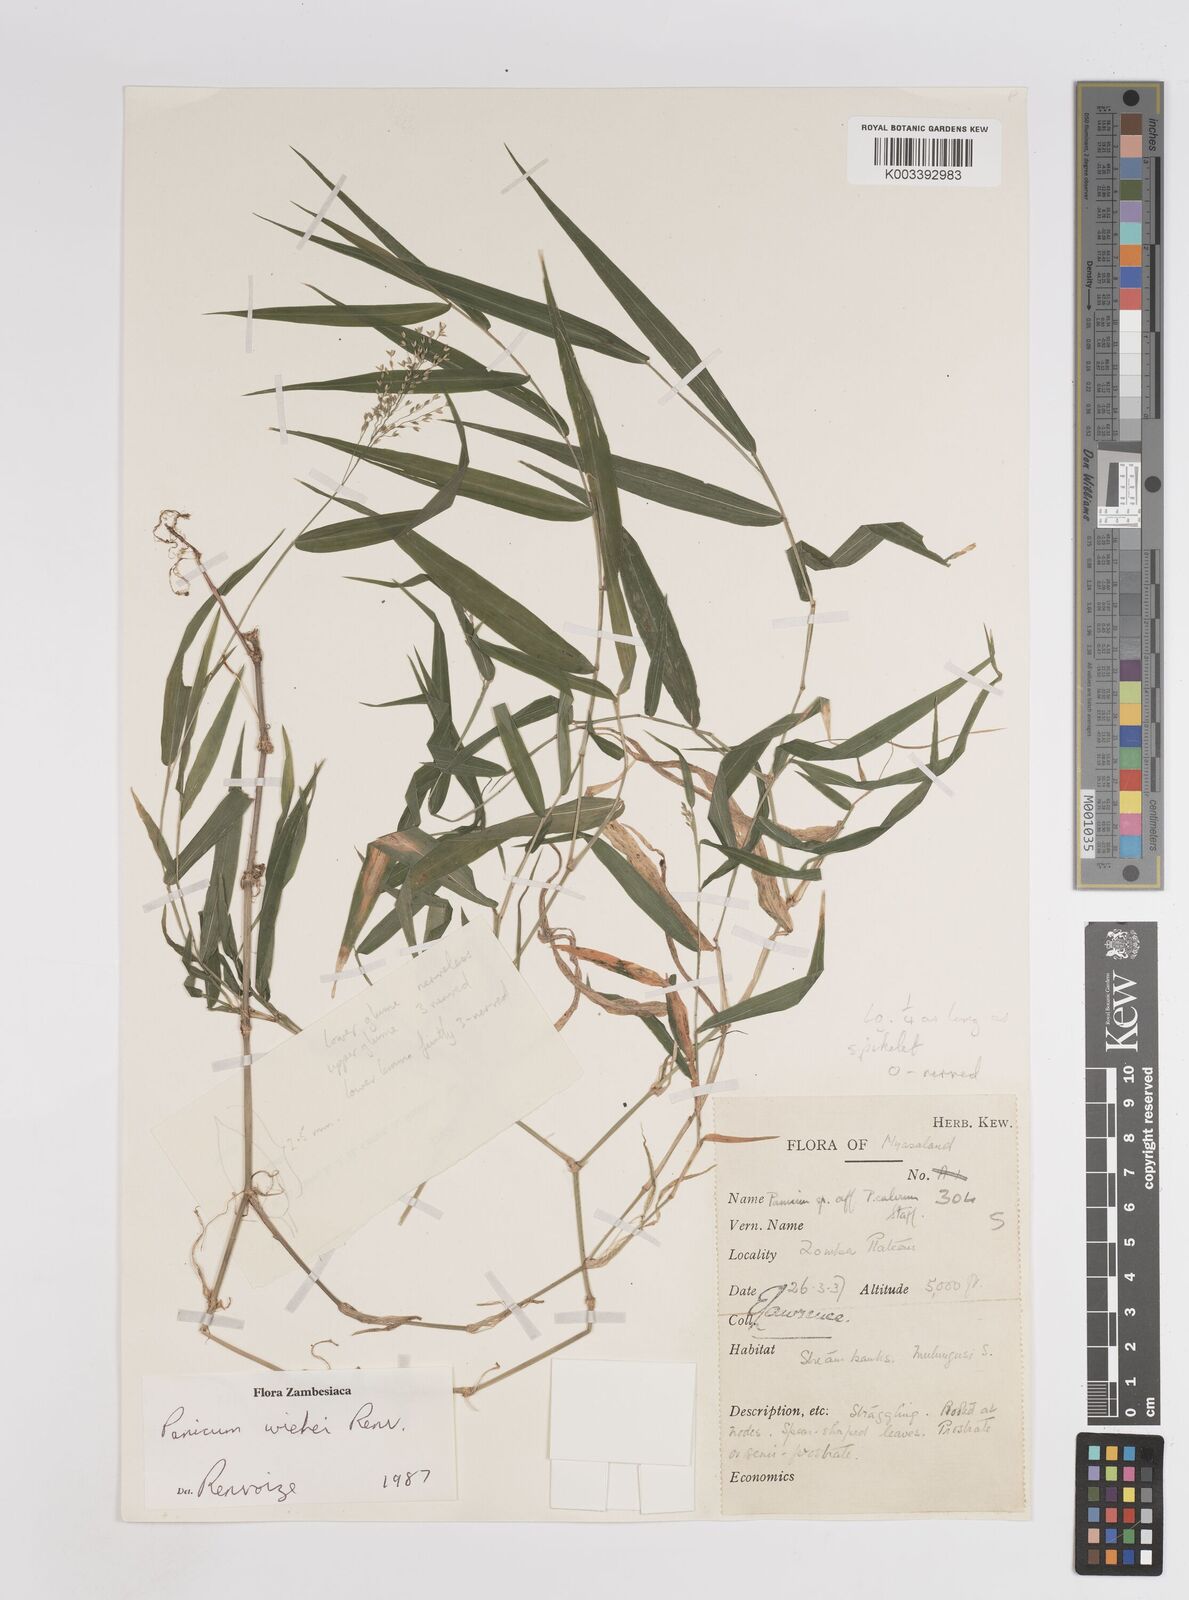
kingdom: Plantae
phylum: Tracheophyta
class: Liliopsida
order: Poales
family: Poaceae
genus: Panicum
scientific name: Panicum wiehei
